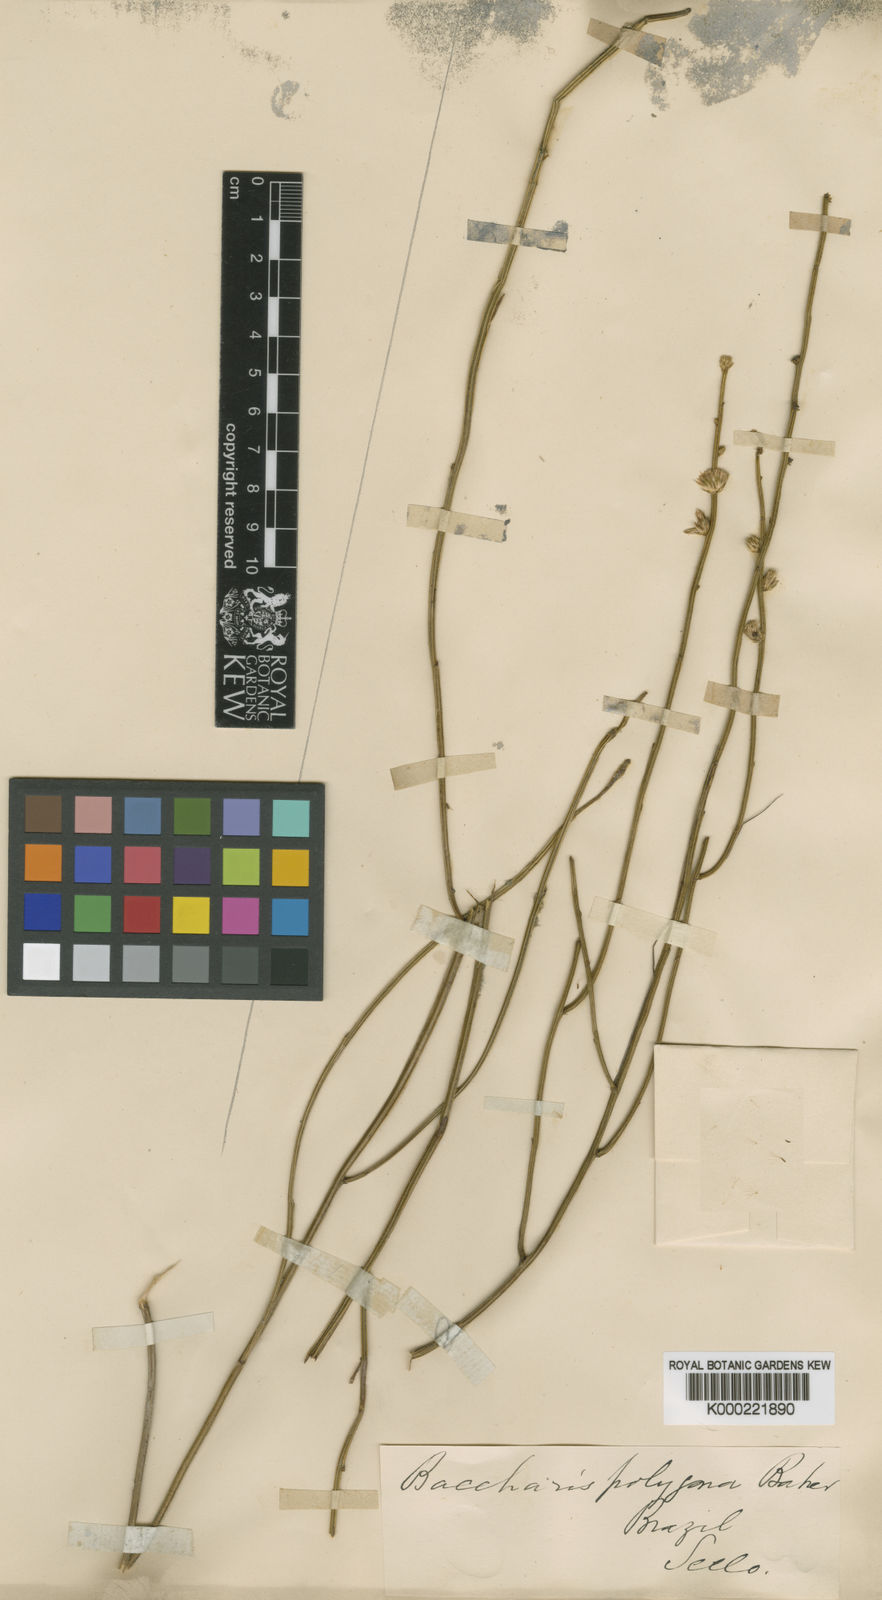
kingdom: Plantae
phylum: Tracheophyta
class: Magnoliopsida
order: Asterales
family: Asteraceae
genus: Baccharis
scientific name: Baccharis polygona
